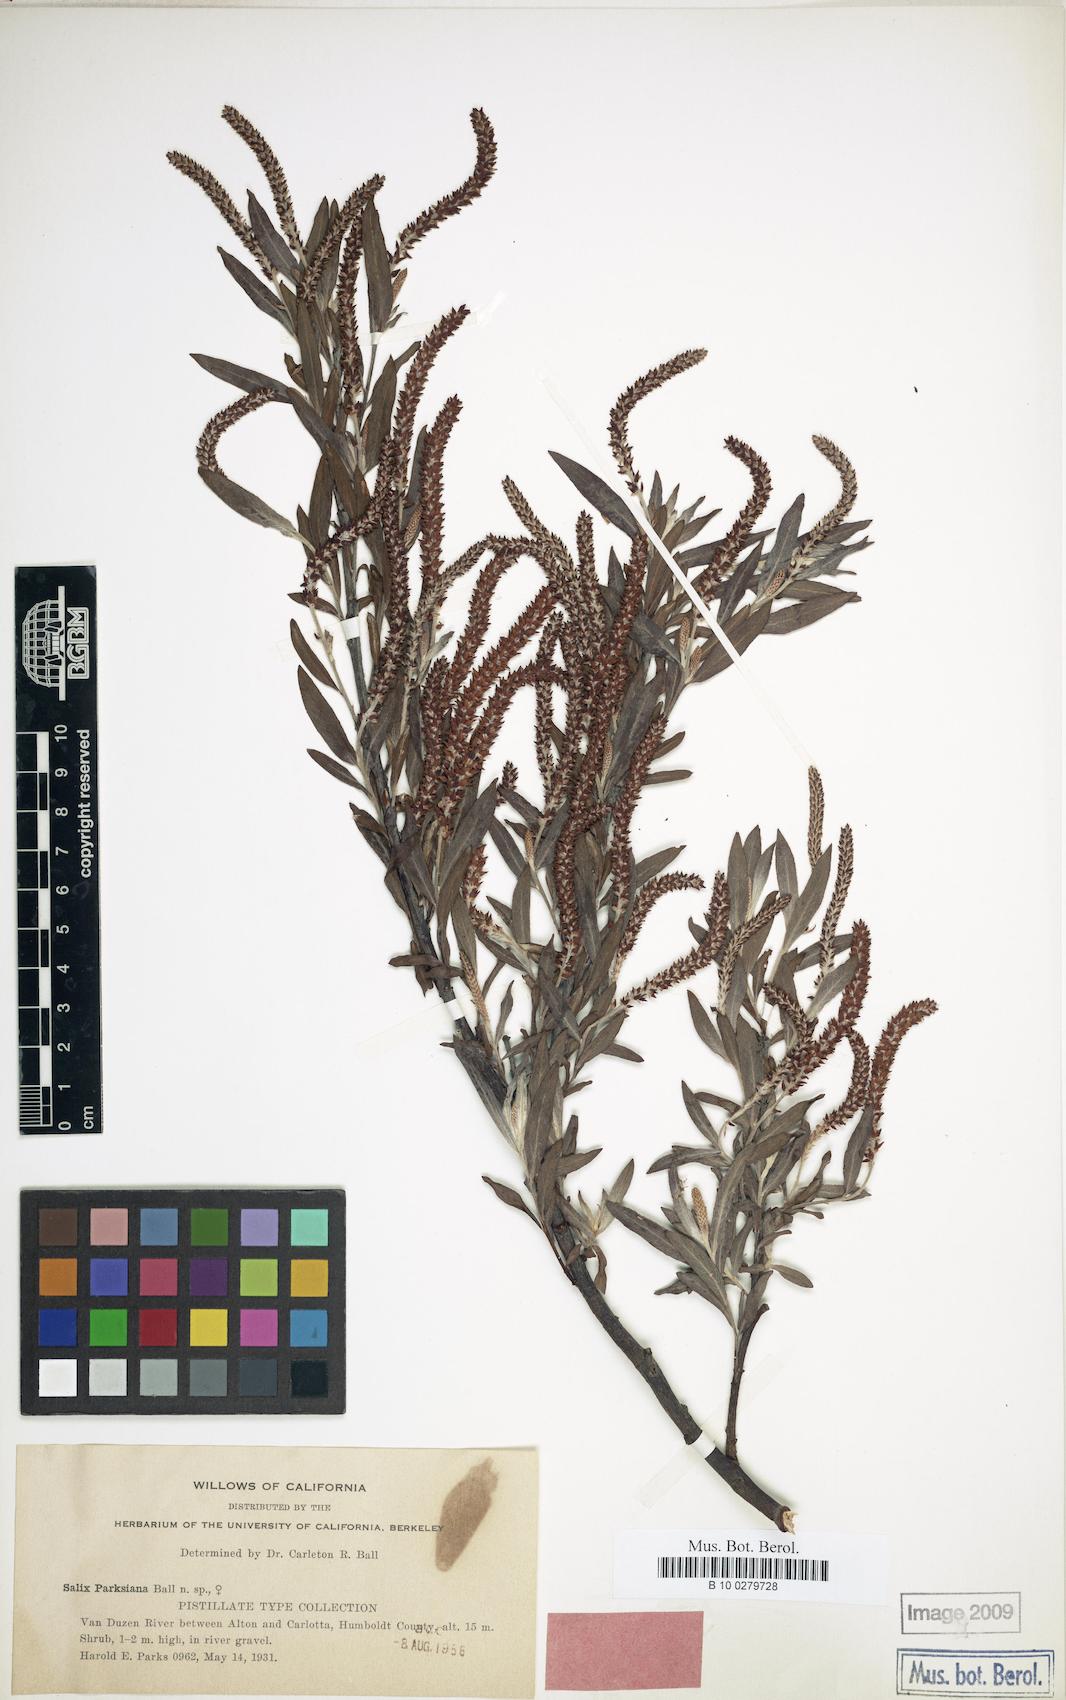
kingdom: Plantae
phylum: Tracheophyta
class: Magnoliopsida
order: Malpighiales
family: Salicaceae
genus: Salix
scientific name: Salix melanopsis
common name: Dusky willow
